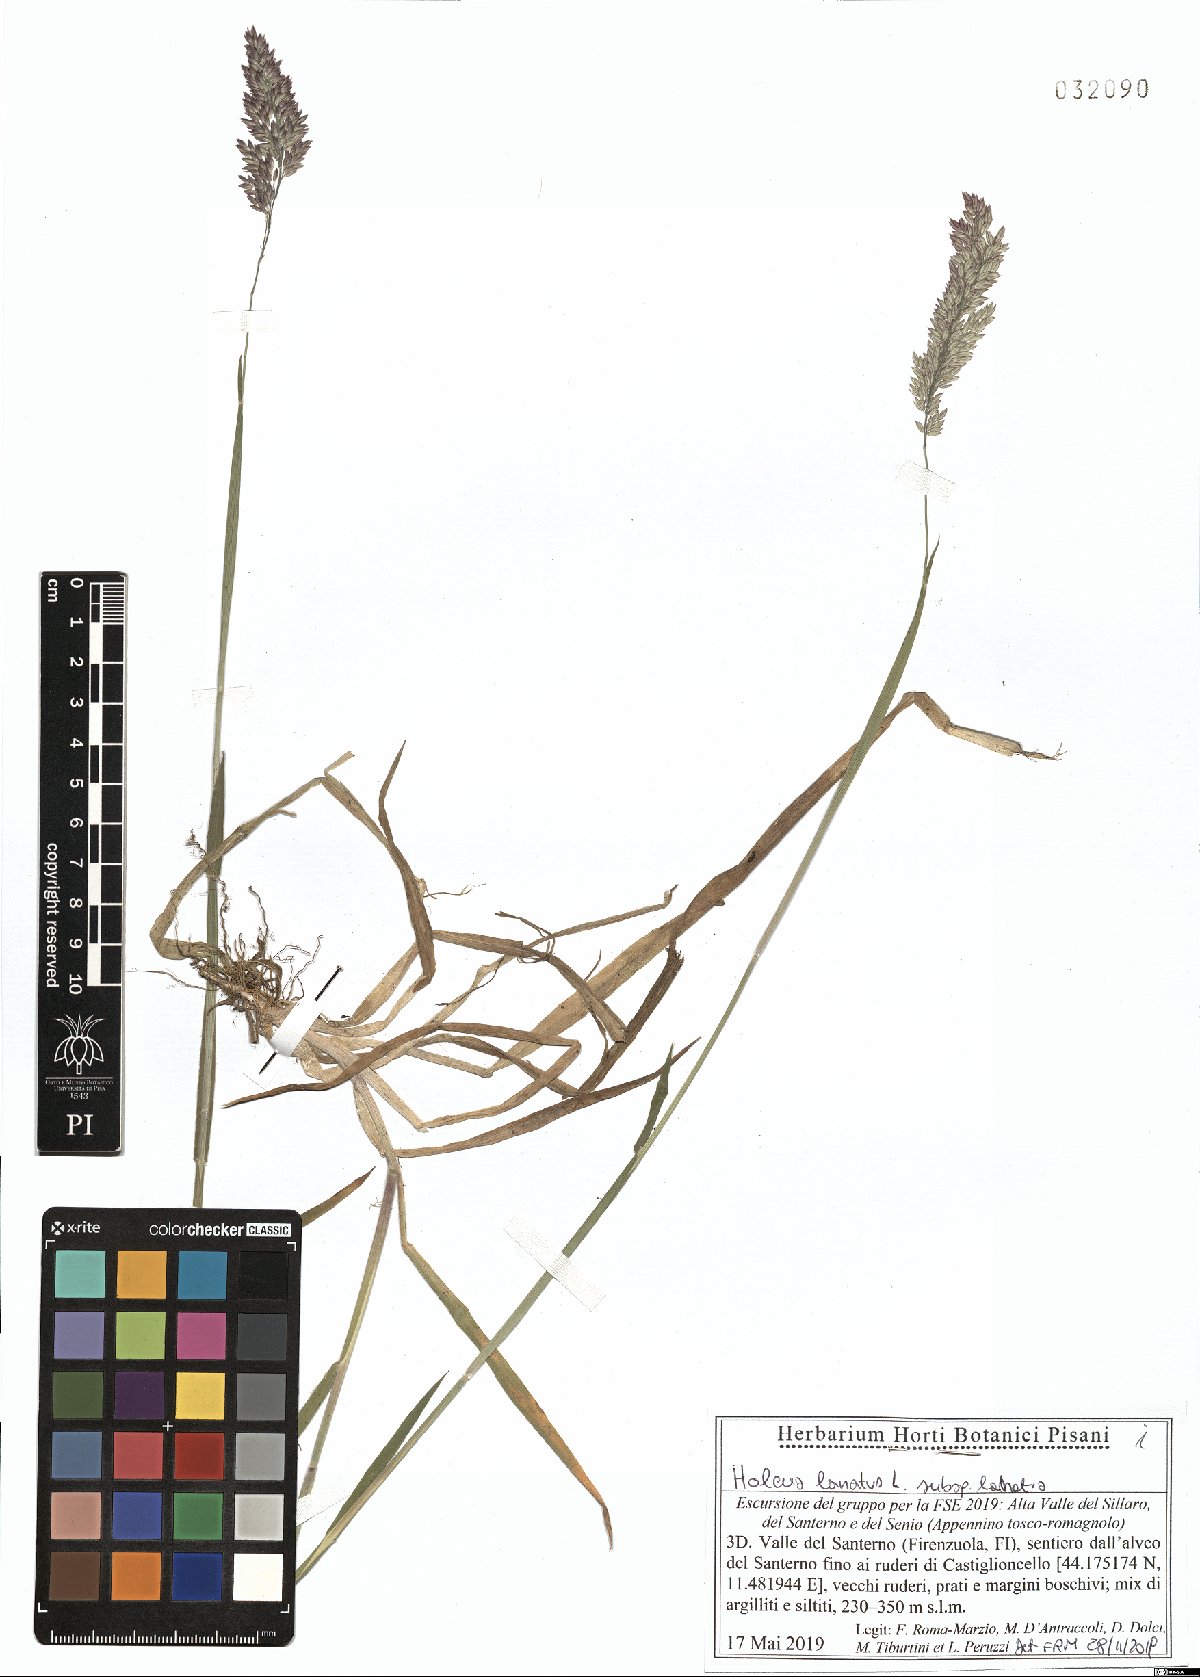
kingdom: Plantae
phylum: Tracheophyta
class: Liliopsida
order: Poales
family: Poaceae
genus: Holcus
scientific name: Holcus lanatus
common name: Yorkshire-fog
